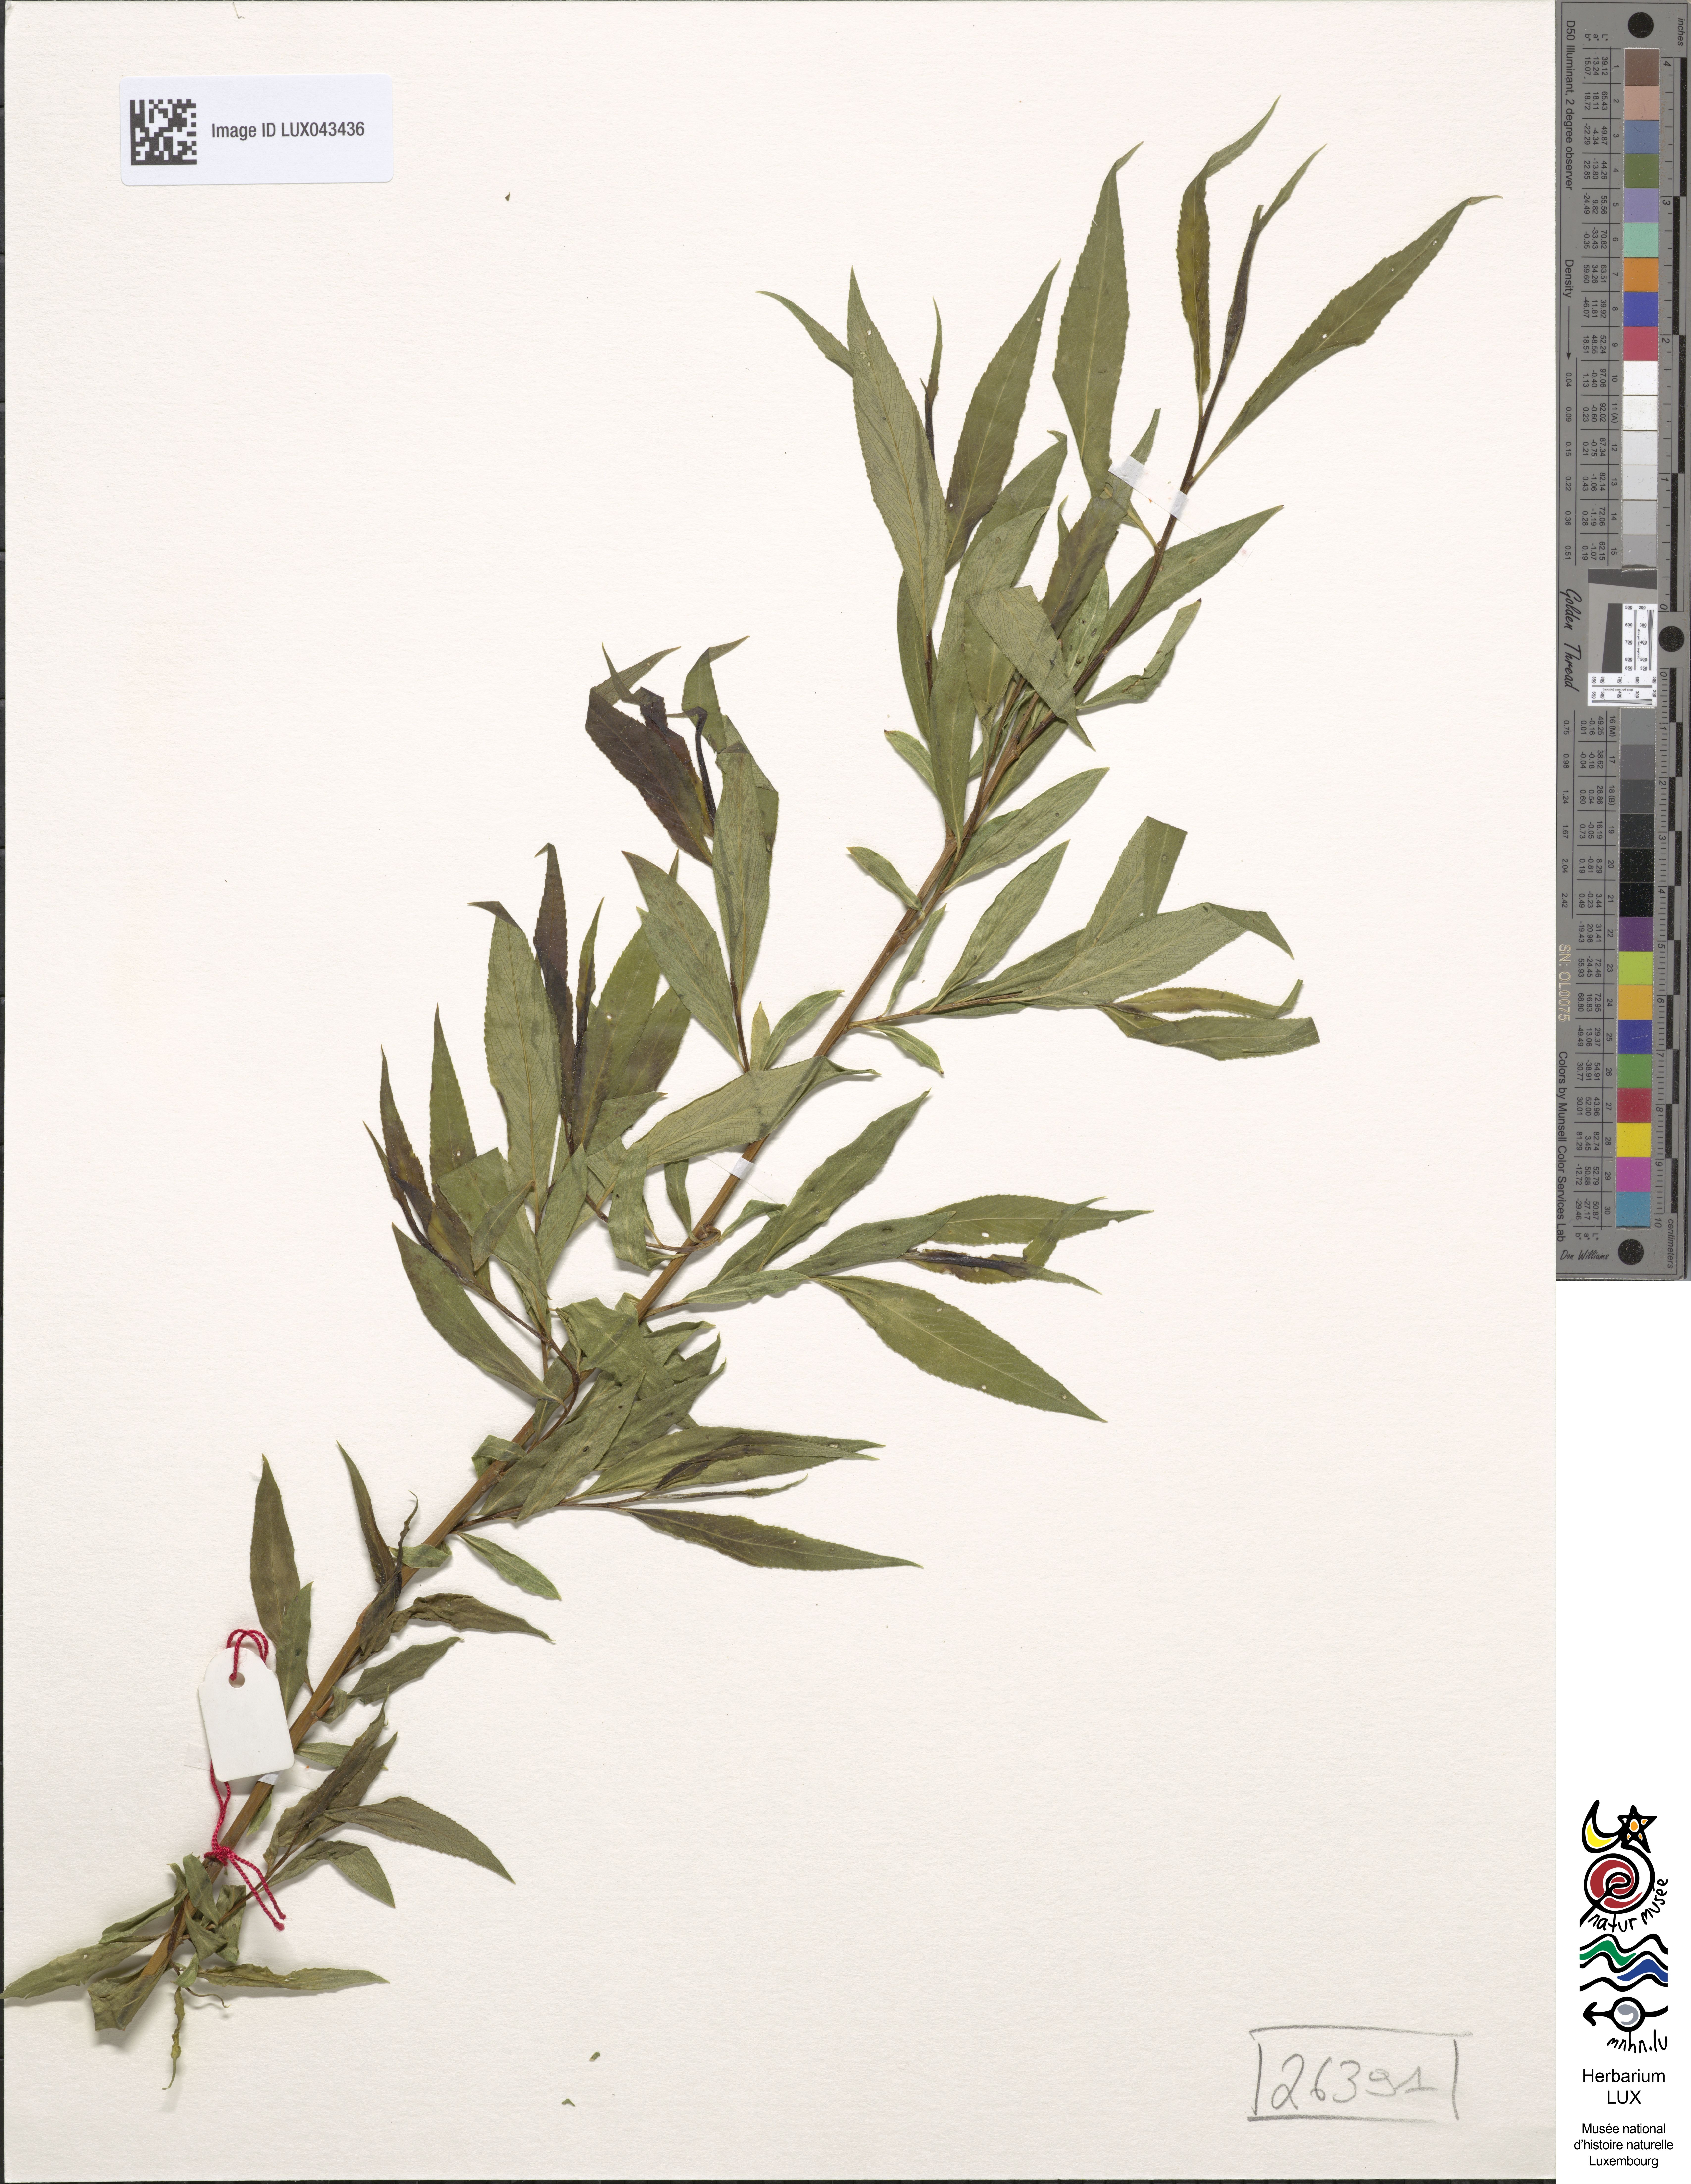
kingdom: Plantae
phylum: Tracheophyta
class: Magnoliopsida
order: Malpighiales
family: Salicaceae
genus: Salix
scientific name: Salix viminalis
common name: Osier
